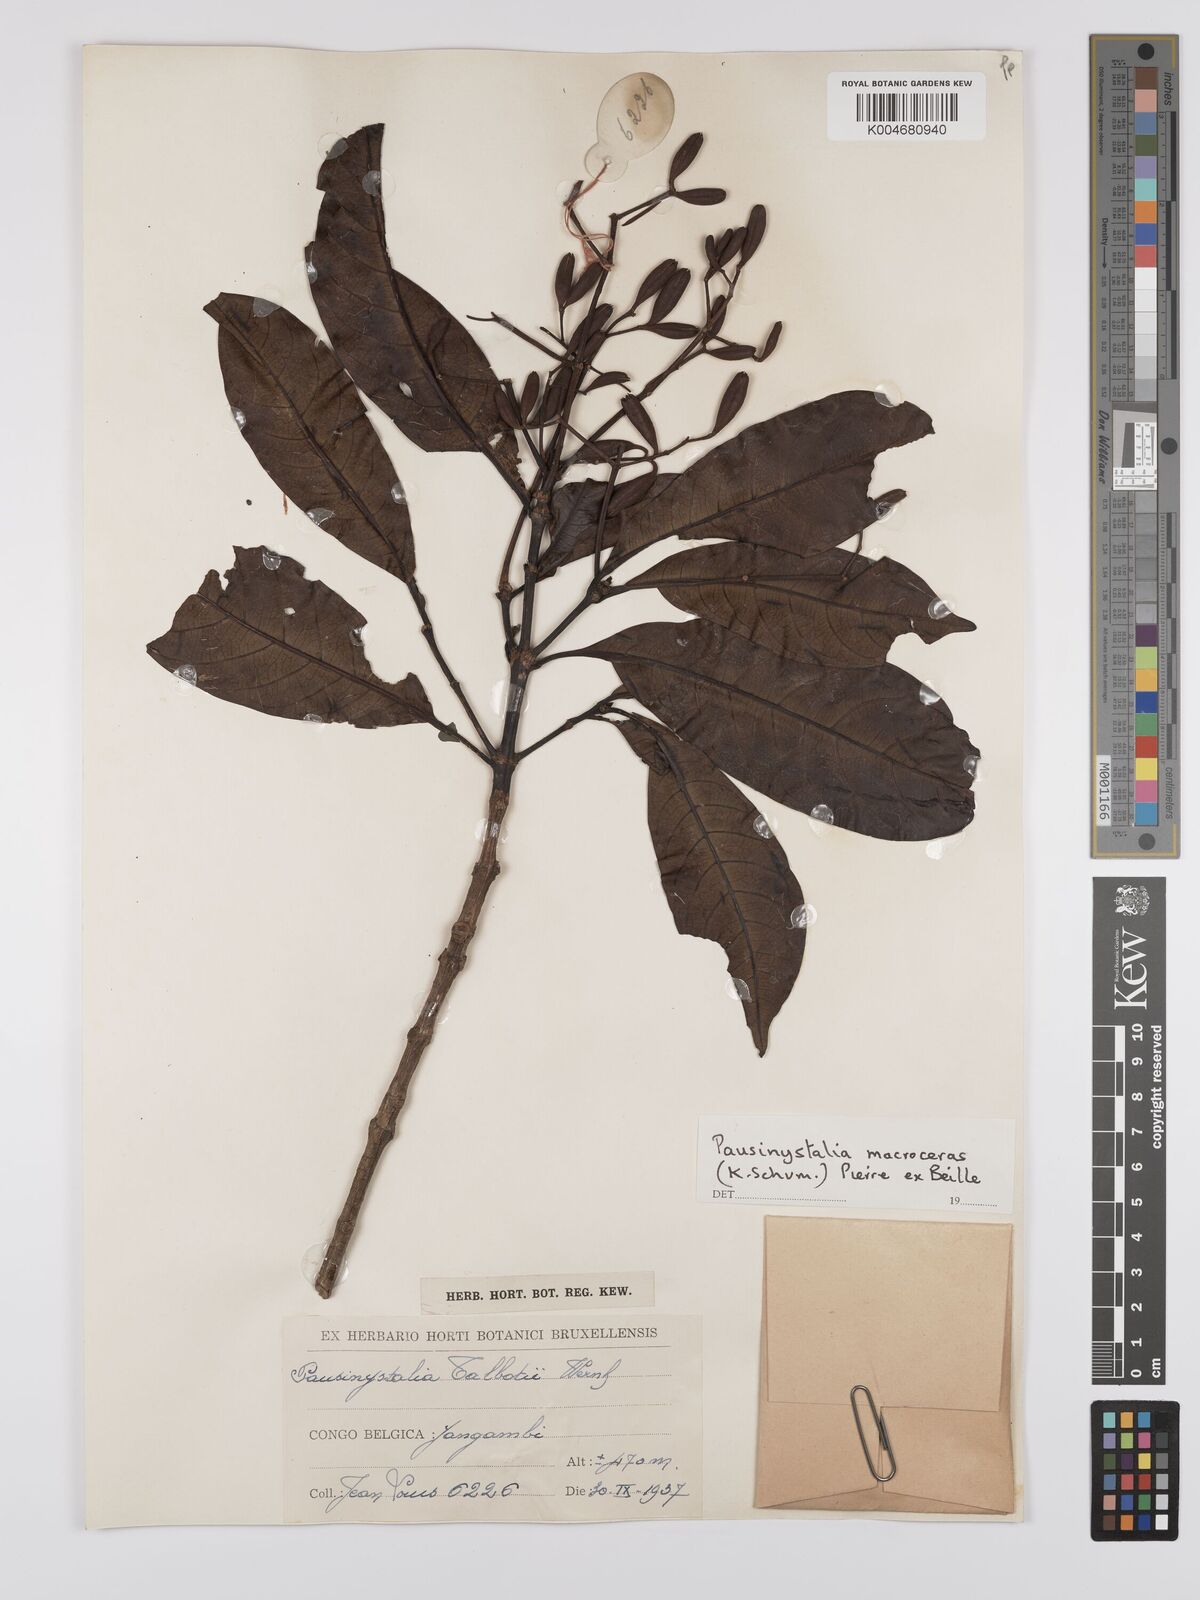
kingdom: Plantae
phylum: Tracheophyta
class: Magnoliopsida
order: Gentianales
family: Rubiaceae
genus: Corynanthe
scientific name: Corynanthe macroceras
